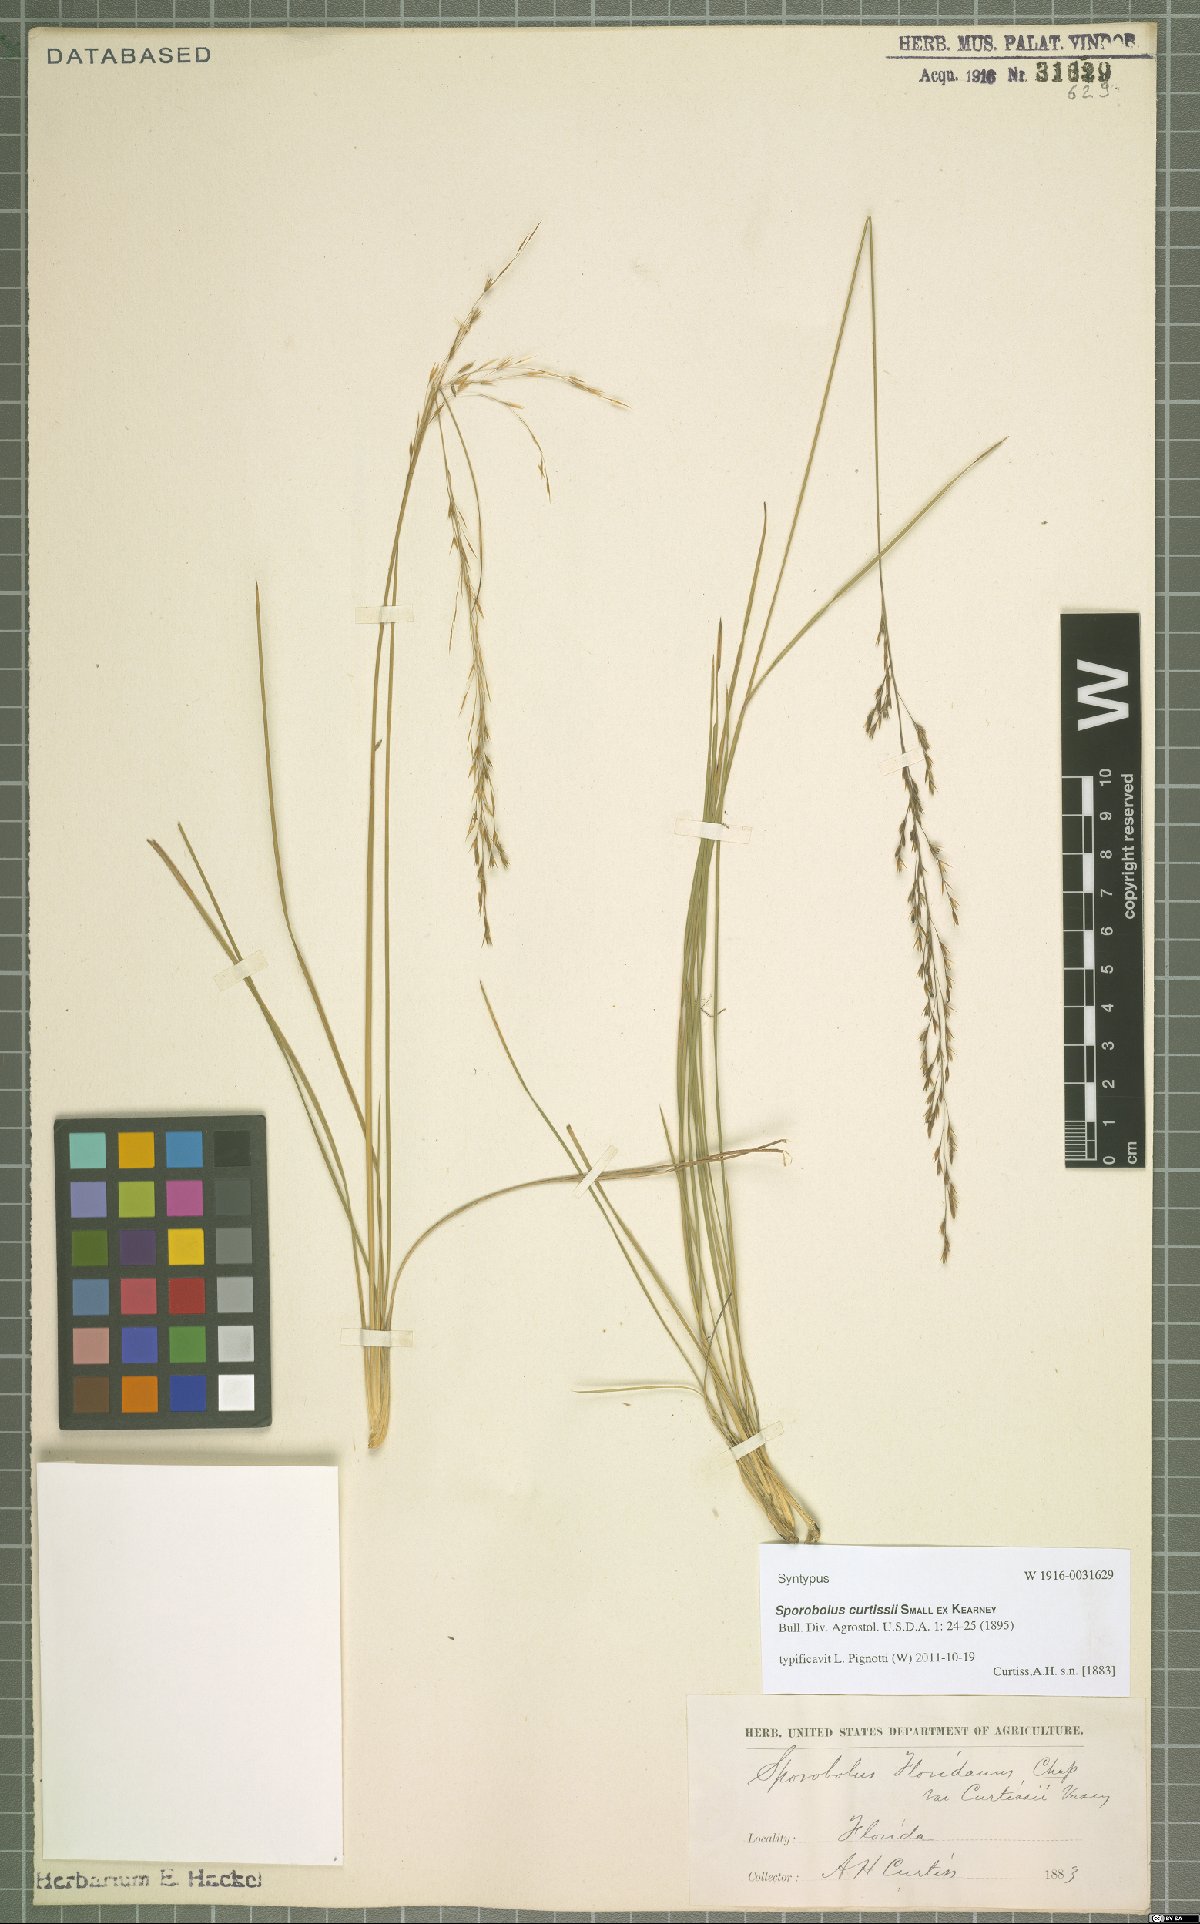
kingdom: Plantae
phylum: Tracheophyta
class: Liliopsida
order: Poales
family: Poaceae
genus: Sporobolus
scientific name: Sporobolus curtissii
